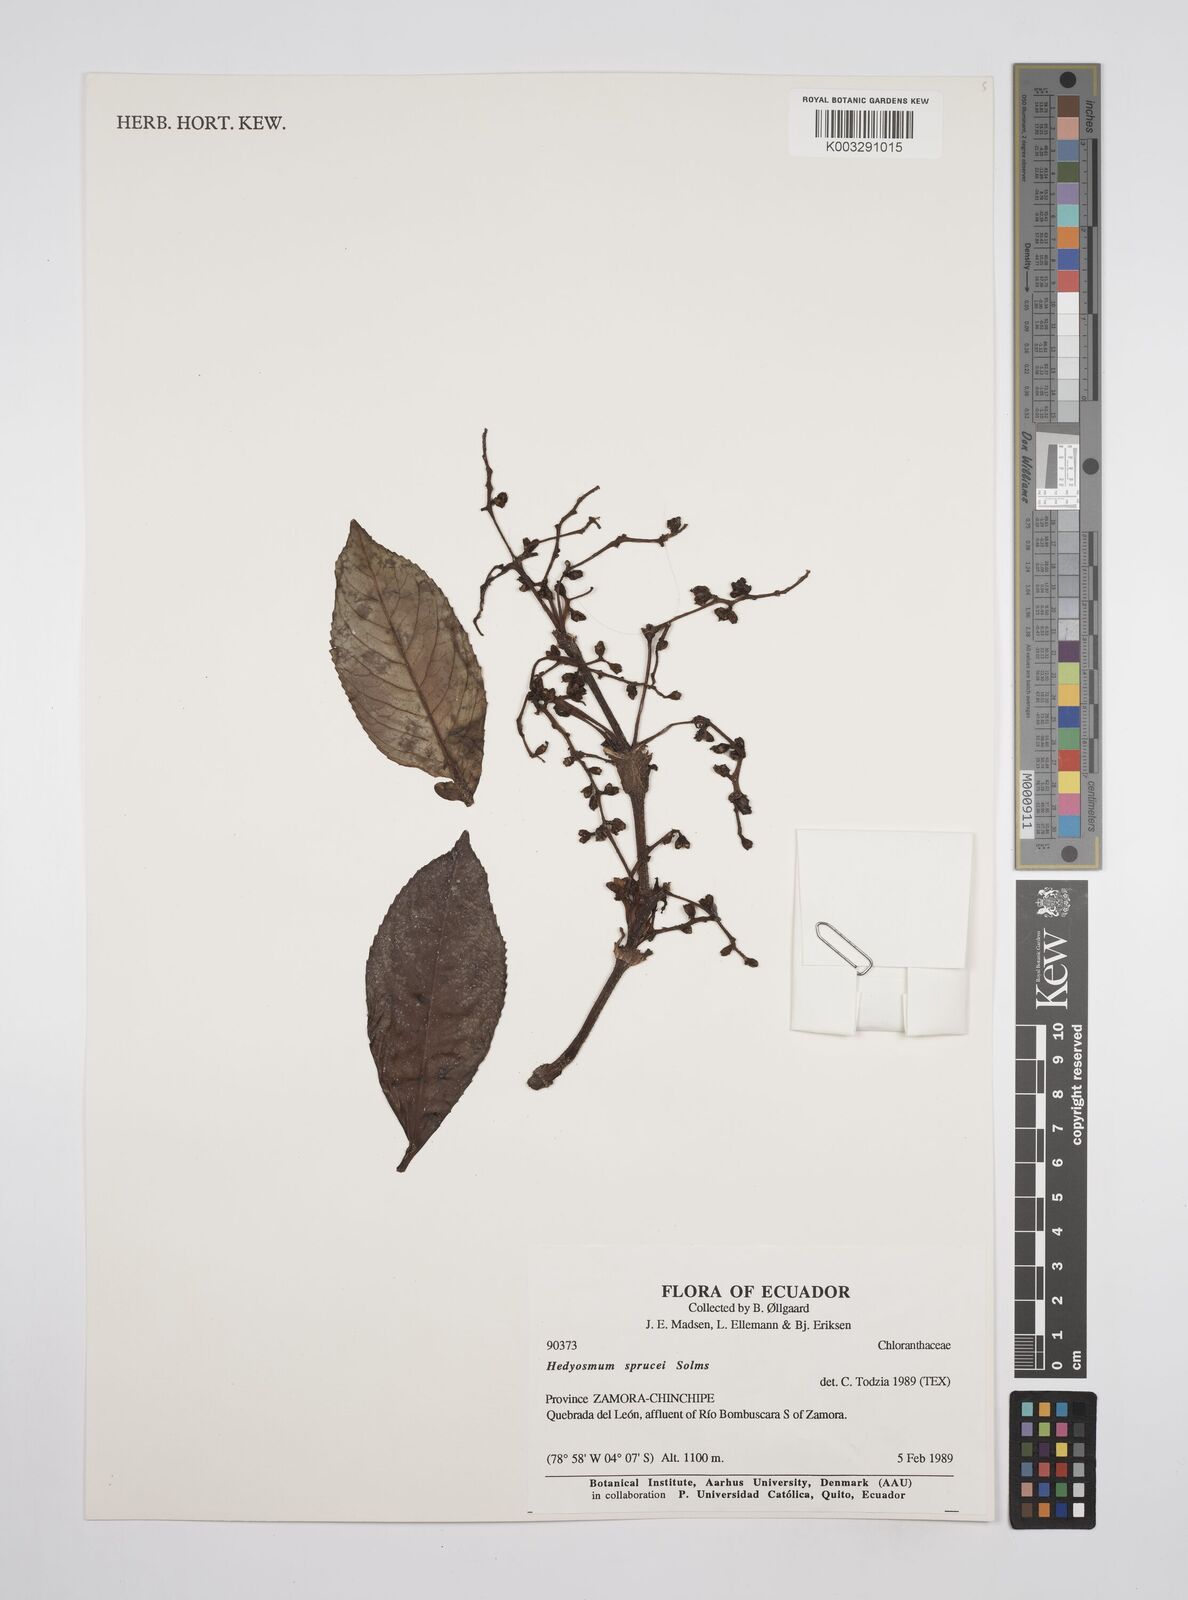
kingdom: Plantae
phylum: Tracheophyta
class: Magnoliopsida
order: Chloranthales
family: Chloranthaceae
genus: Hedyosmum
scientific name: Hedyosmum sprucei
